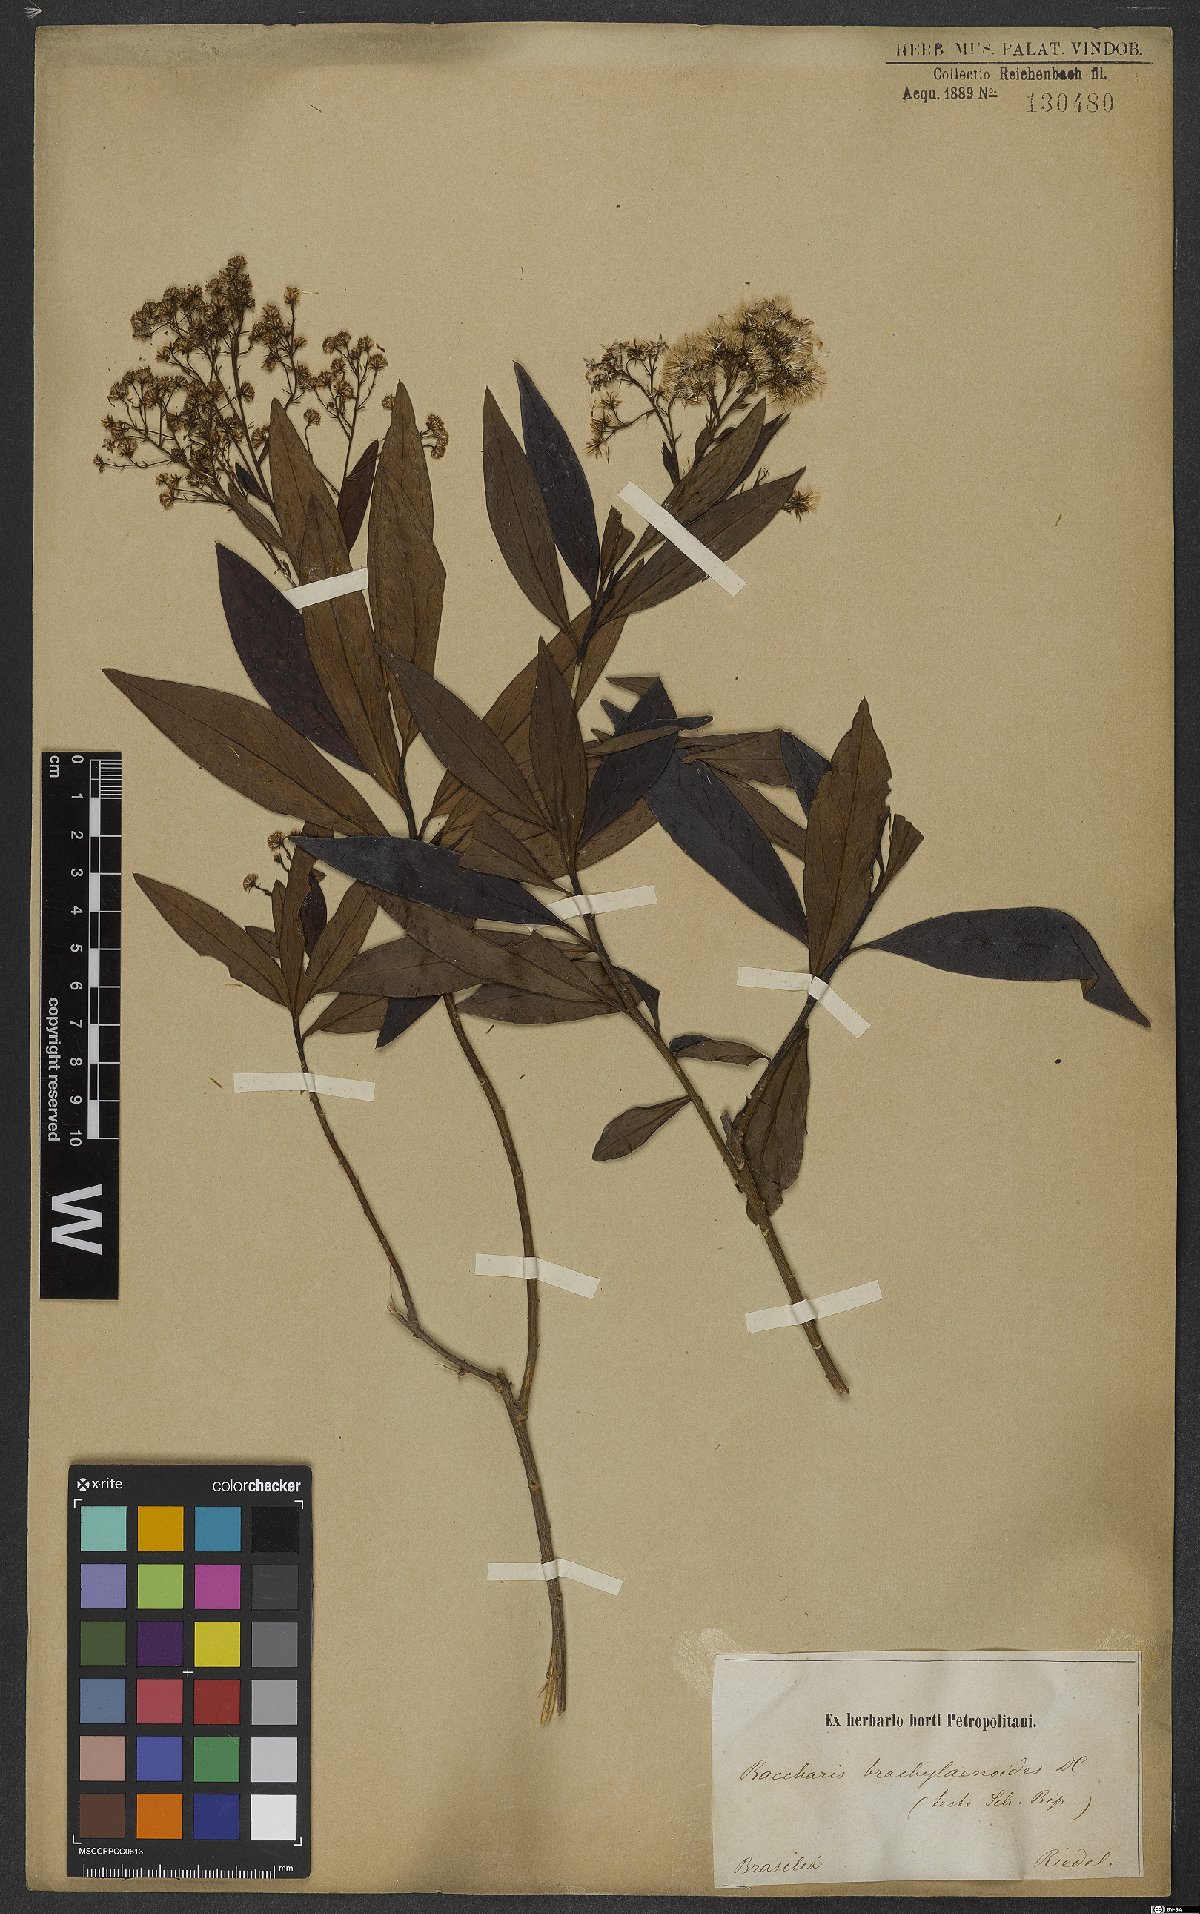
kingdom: Plantae
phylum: Tracheophyta
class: Magnoliopsida
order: Asterales
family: Asteraceae
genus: Baccharis
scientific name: Baccharis oblongifolia
